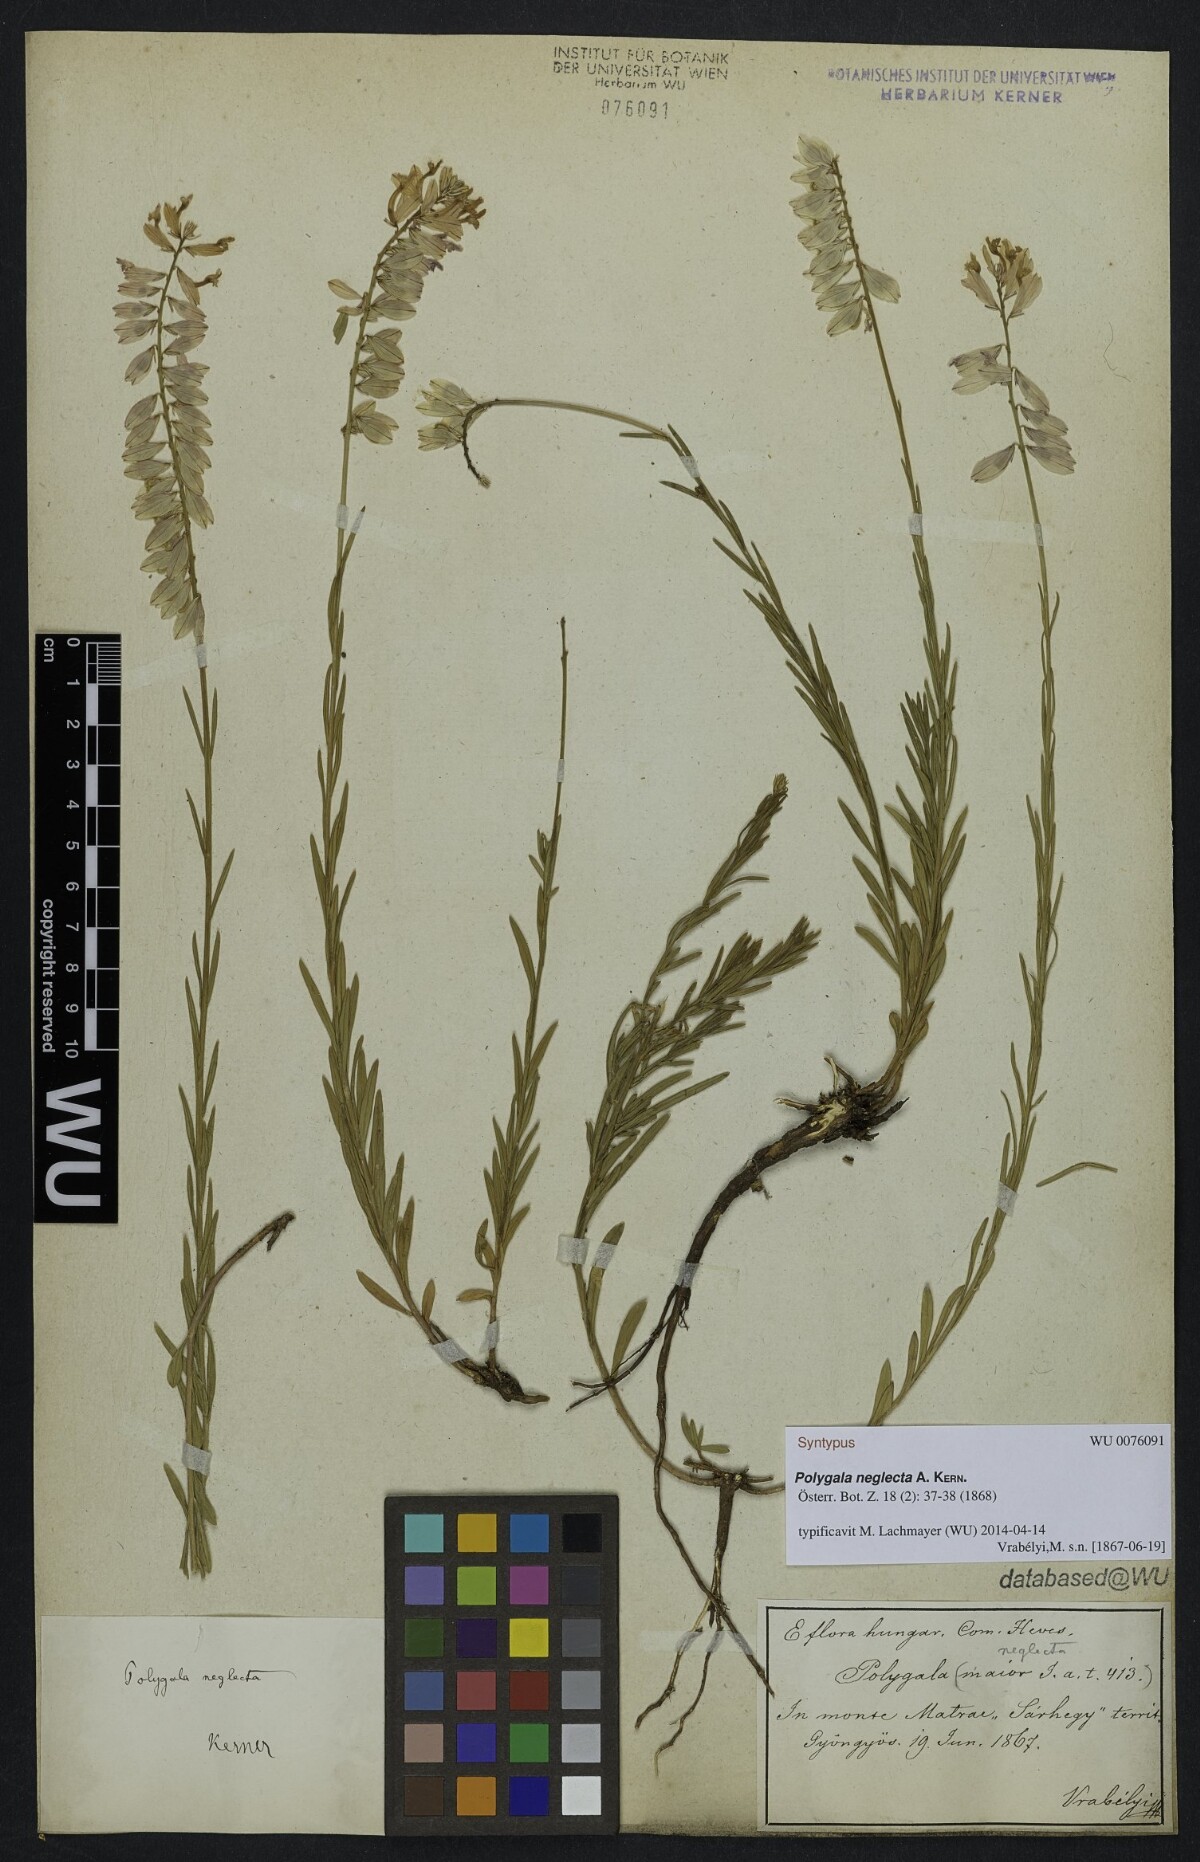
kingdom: Plantae
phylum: Tracheophyta
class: Magnoliopsida
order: Fabales
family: Polygalaceae
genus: Polygala
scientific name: Polygala major
